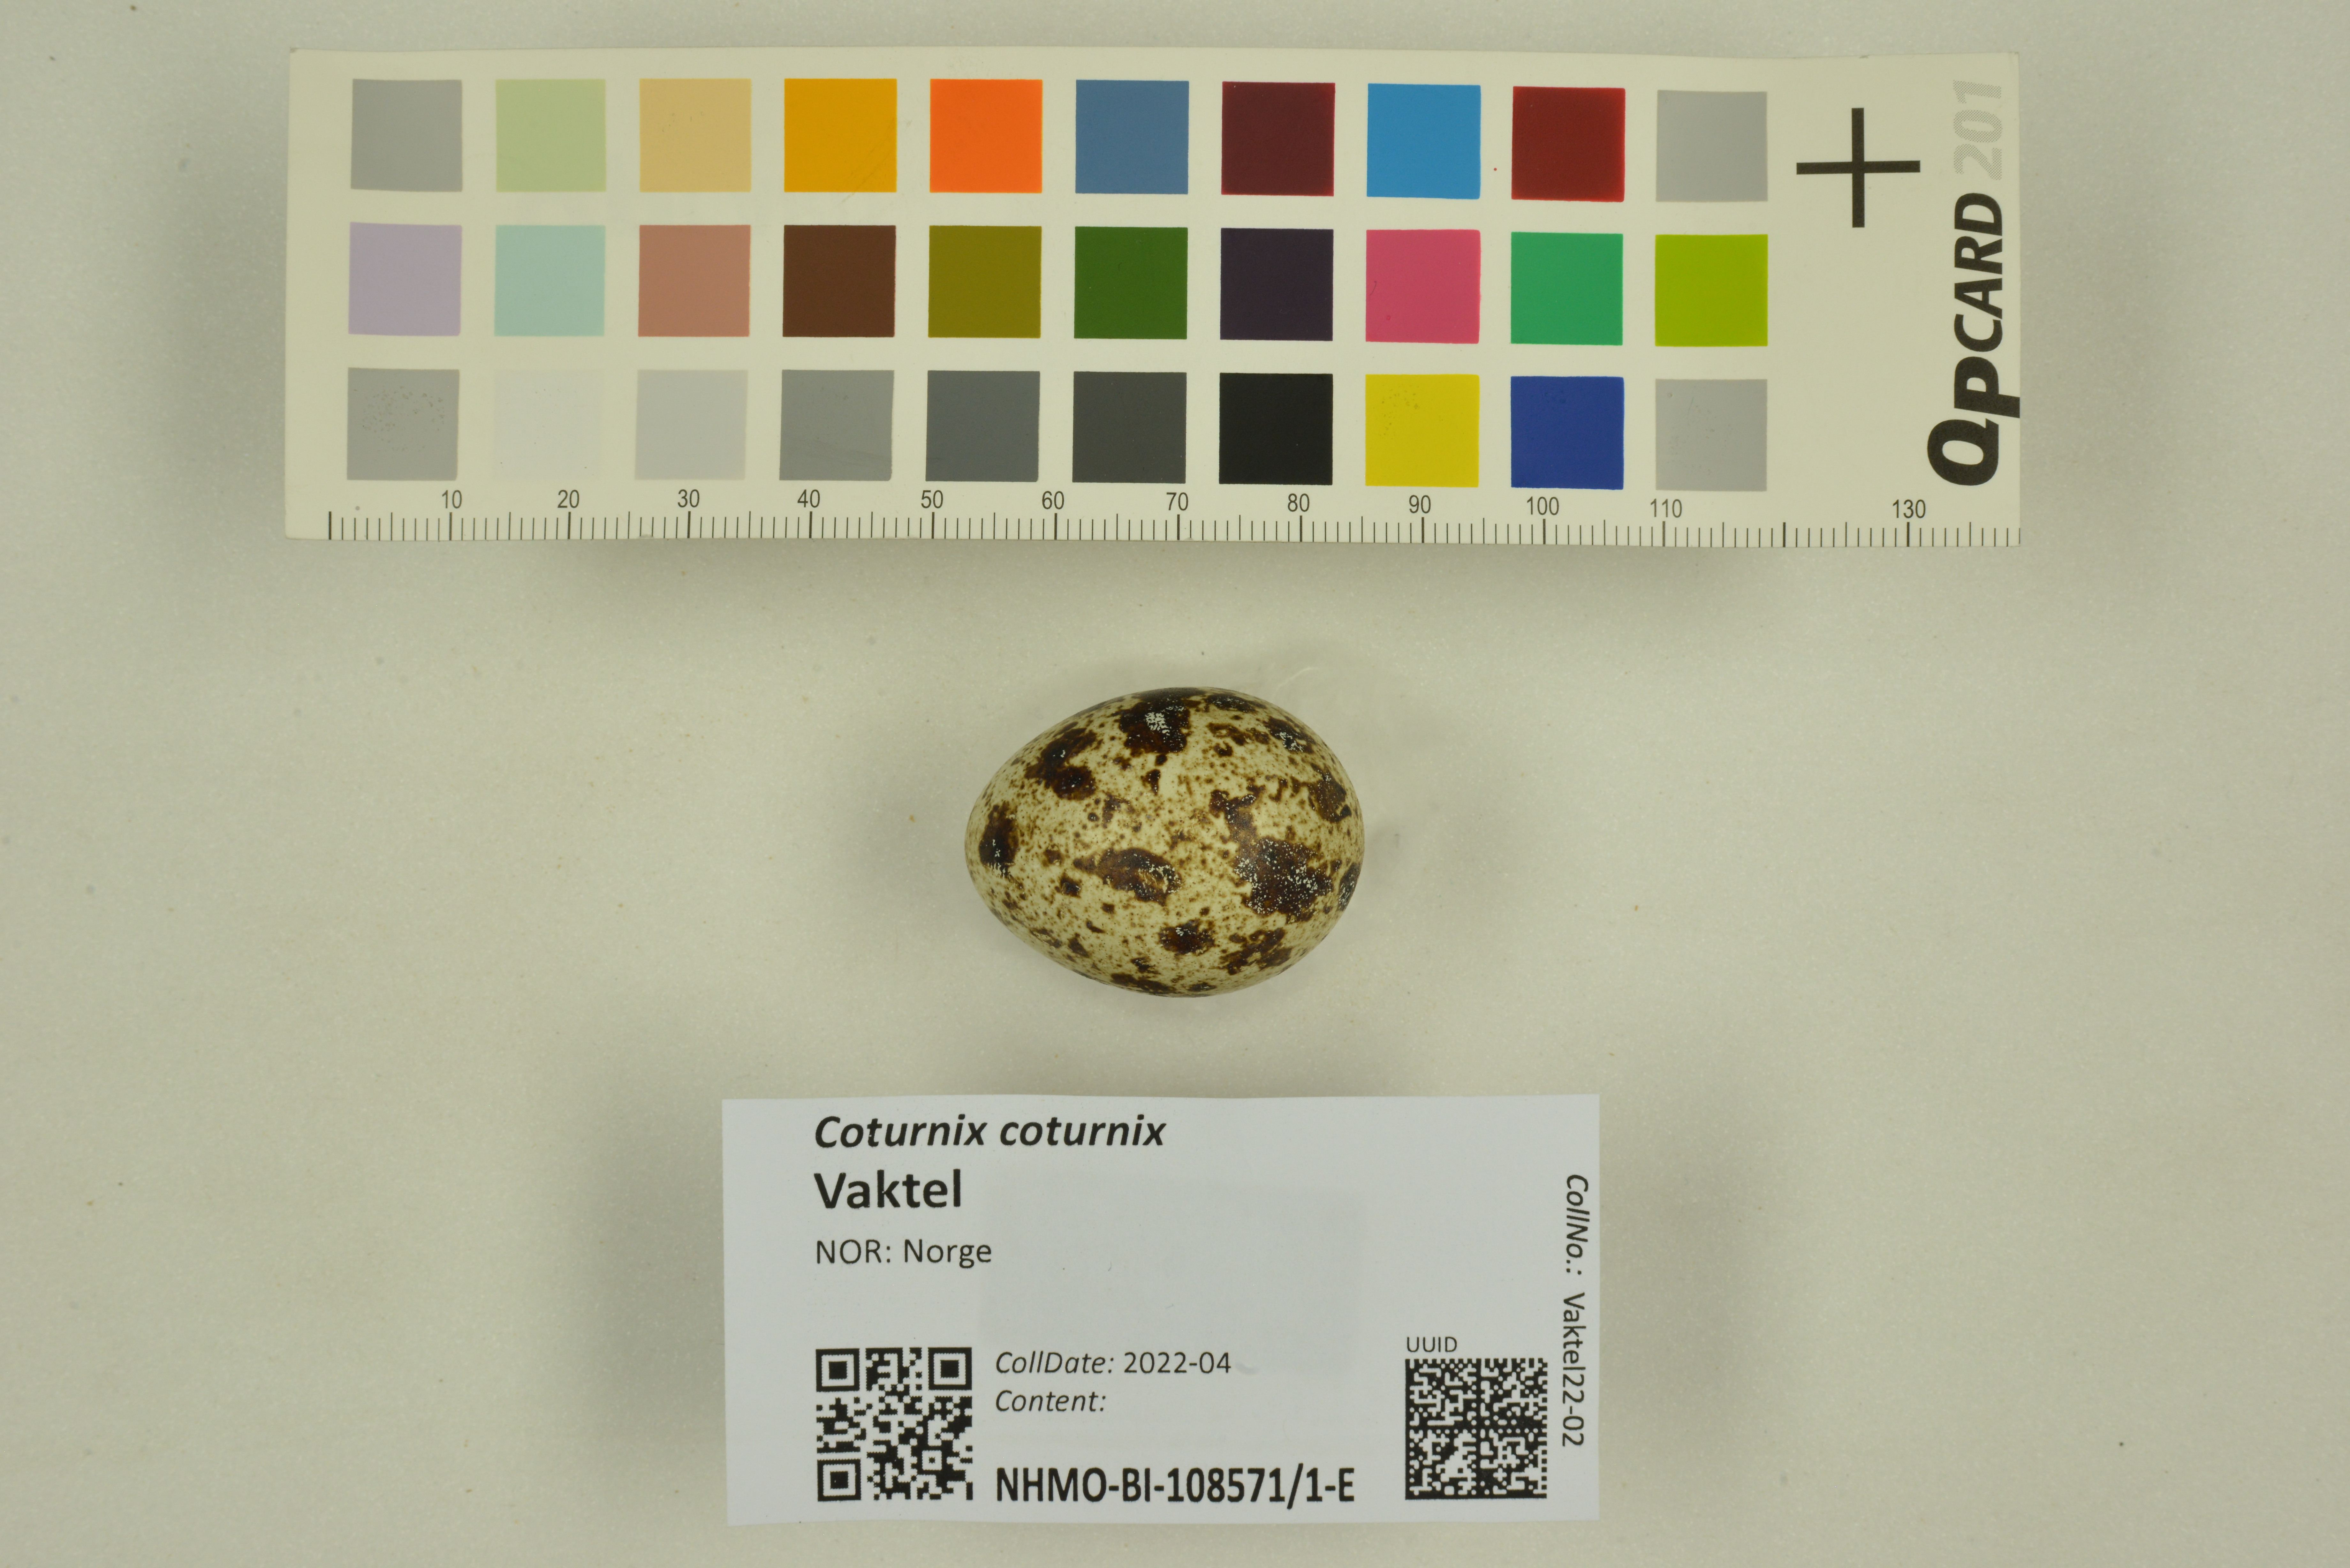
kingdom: Animalia
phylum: Chordata
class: Aves
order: Galliformes
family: Phasianidae
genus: Coturnix
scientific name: Coturnix coturnix
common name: Common quail
